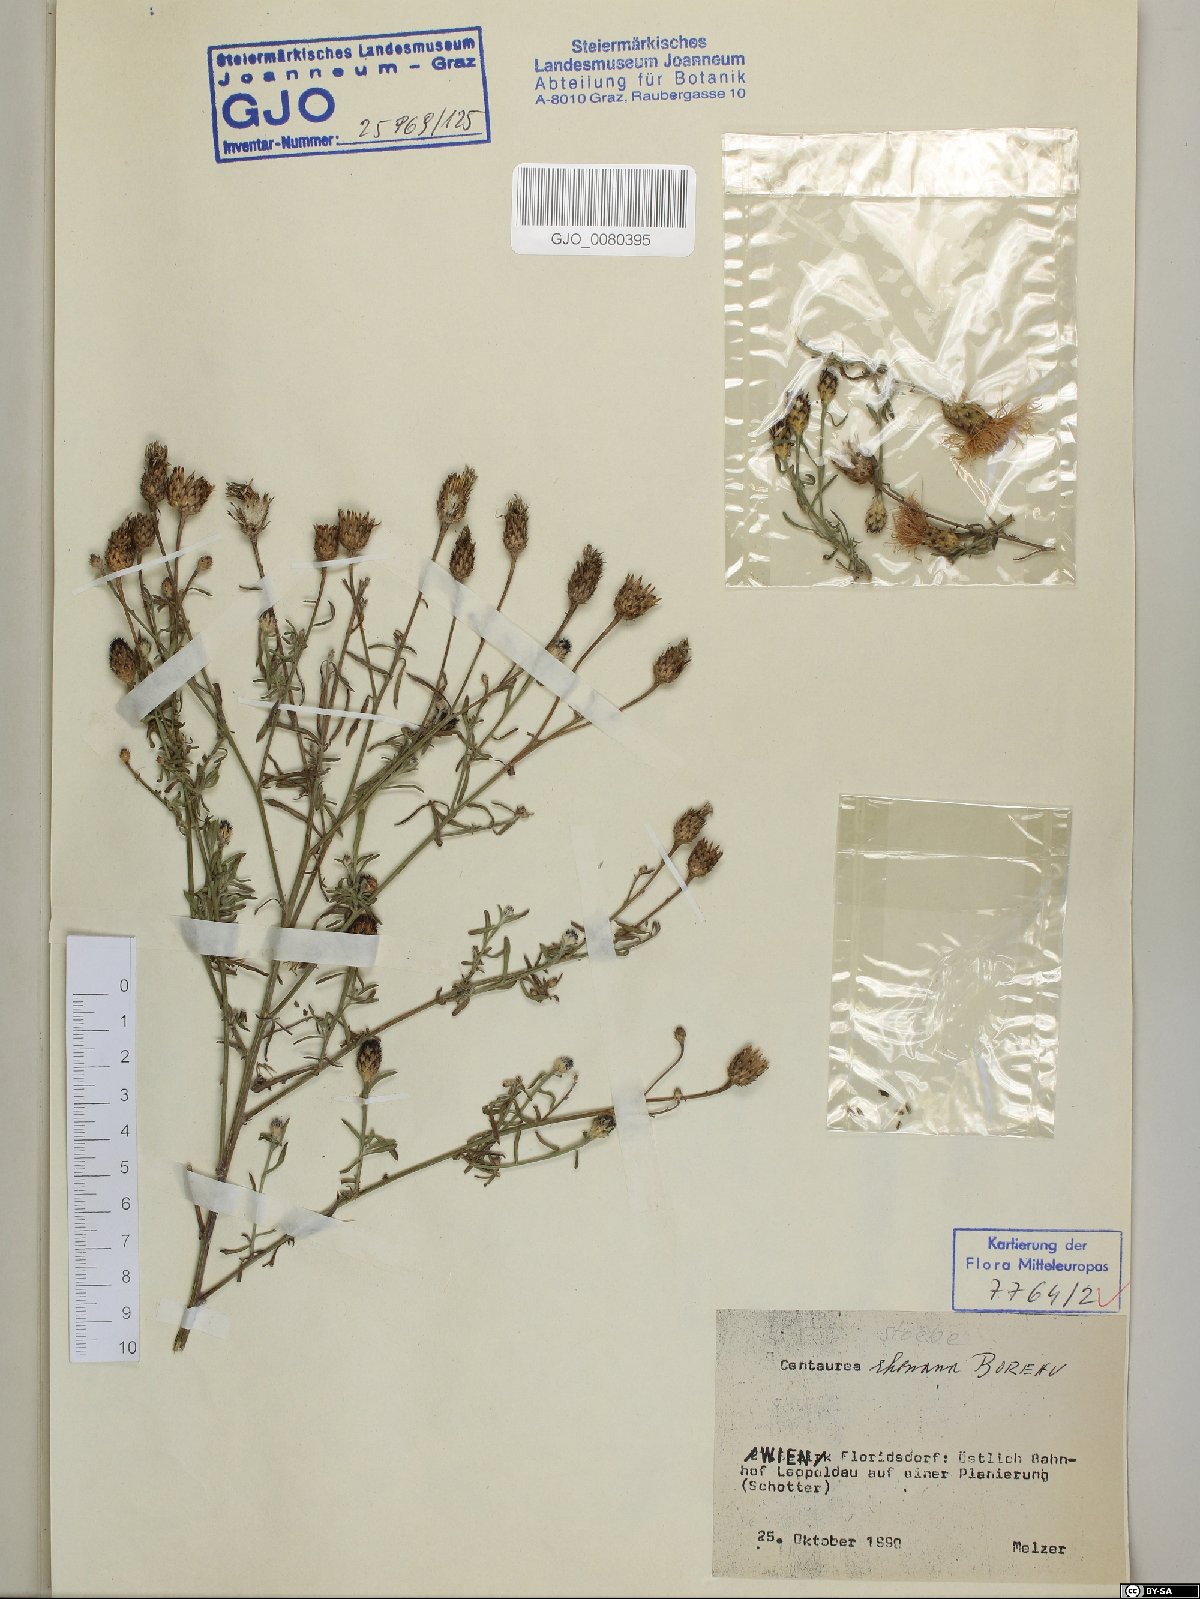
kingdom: Plantae
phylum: Tracheophyta
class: Magnoliopsida
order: Asterales
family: Asteraceae
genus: Centaurea
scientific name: Centaurea stoebe
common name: Spotted knapweed
